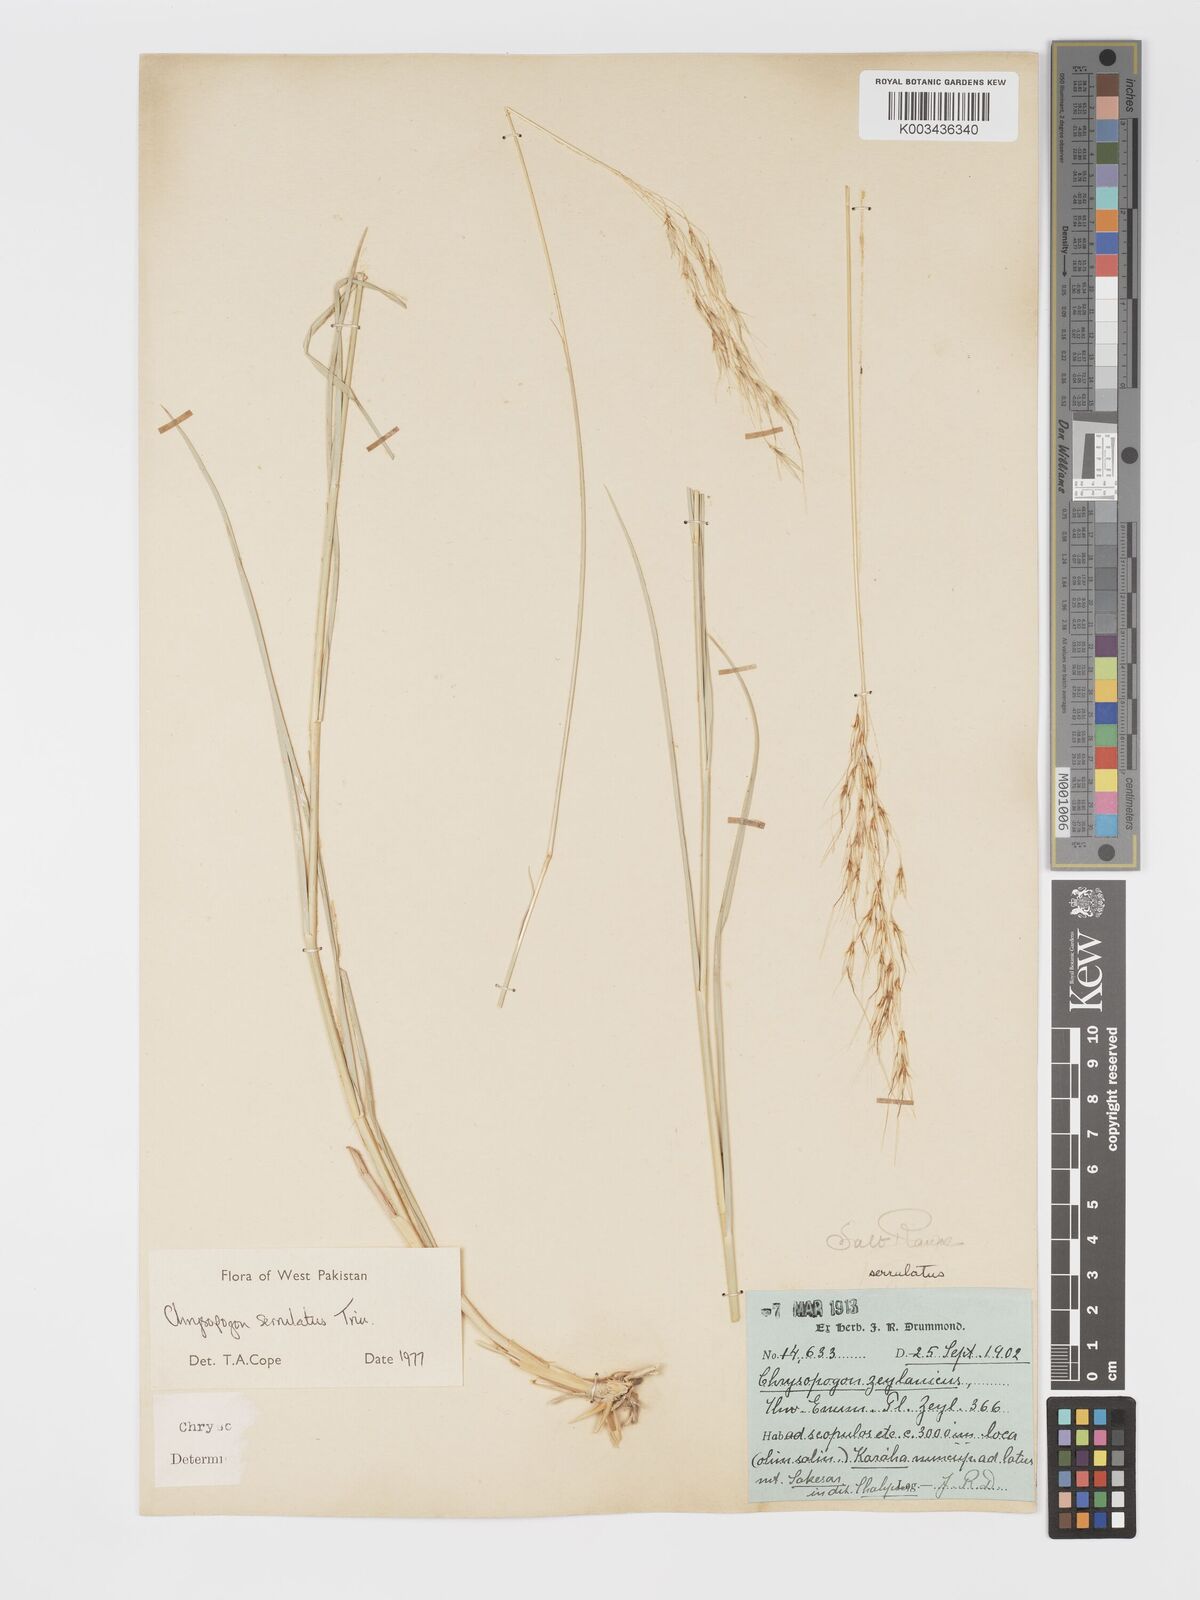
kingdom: Plantae
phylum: Tracheophyta
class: Liliopsida
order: Poales
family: Poaceae
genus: Chrysopogon
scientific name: Chrysopogon serrulatus
